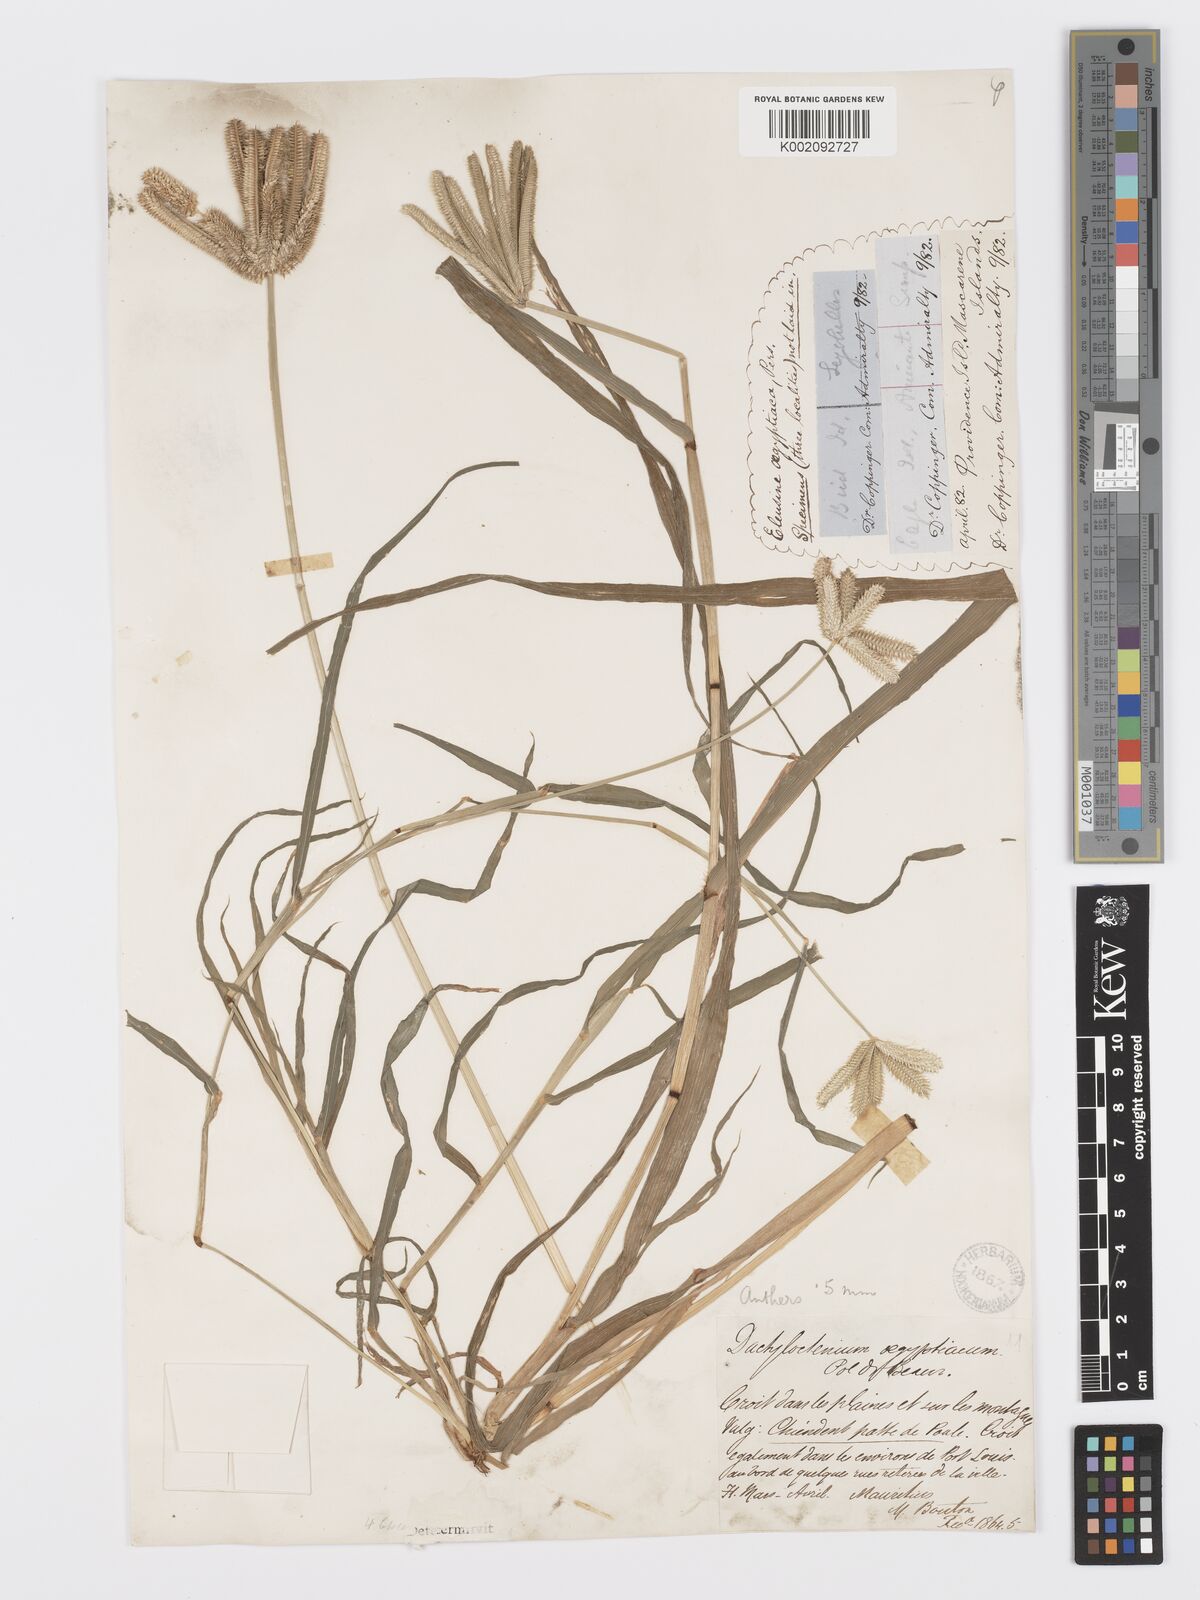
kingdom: Plantae
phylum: Tracheophyta
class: Liliopsida
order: Poales
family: Poaceae
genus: Dactyloctenium
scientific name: Dactyloctenium aegyptium
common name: Egyptian grass
